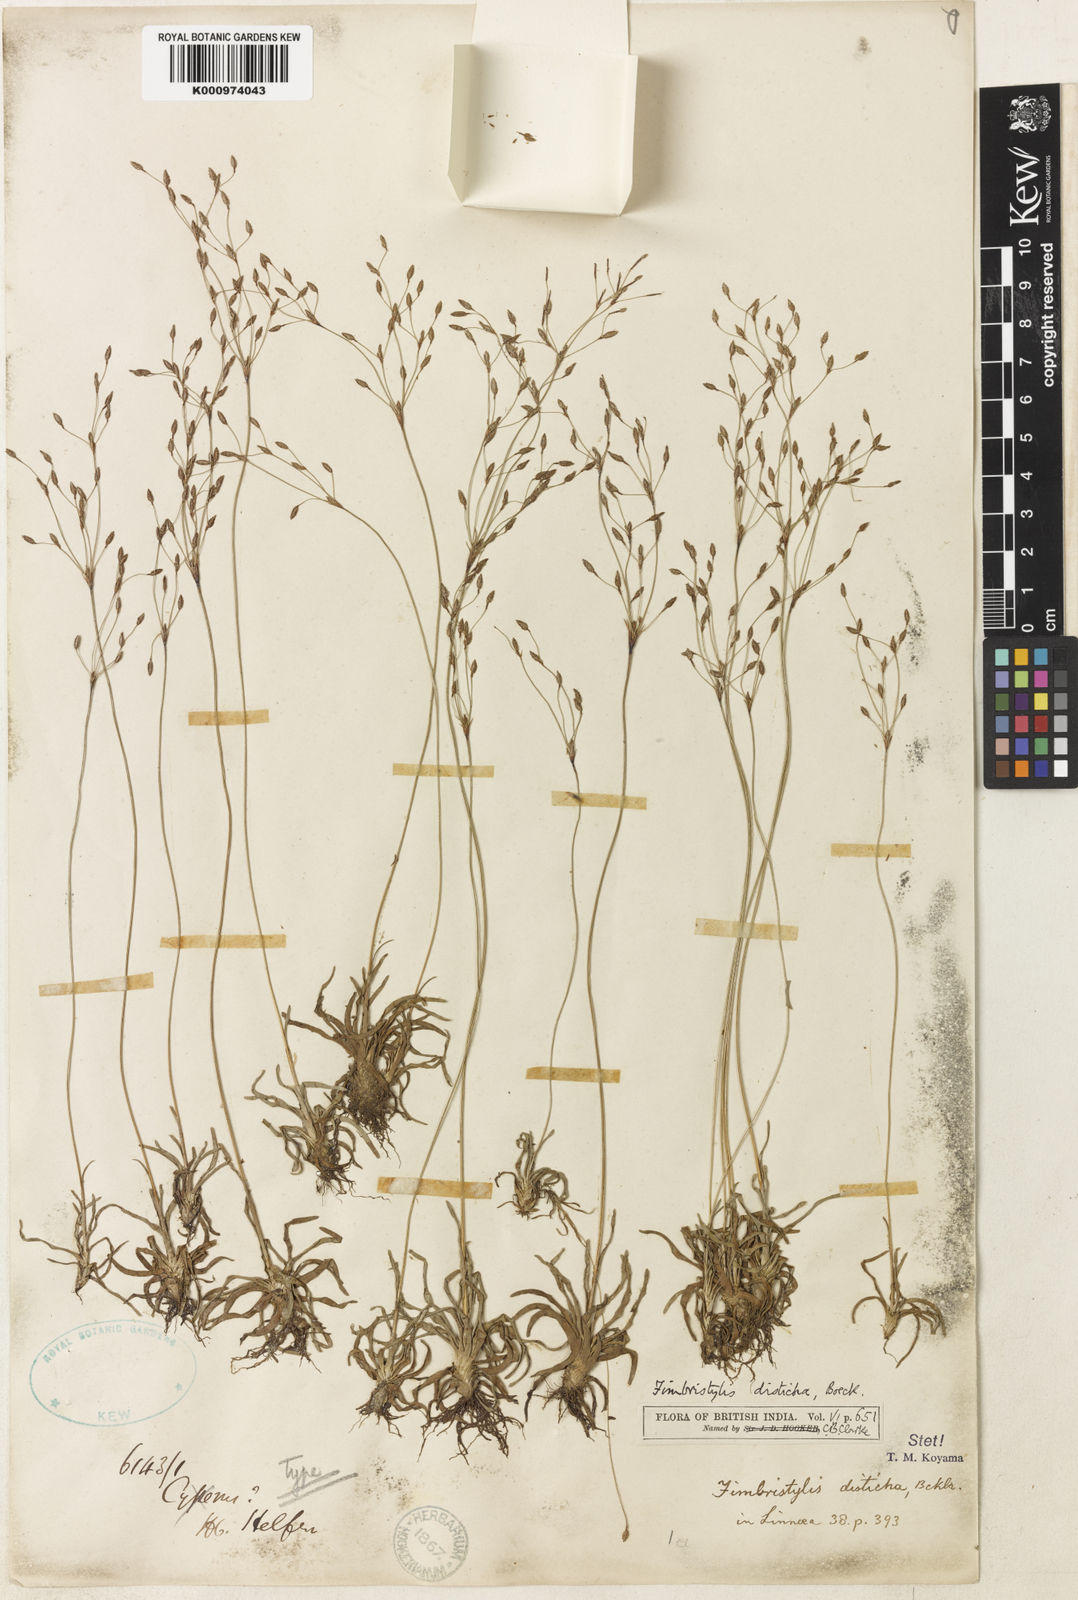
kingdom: Plantae
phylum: Tracheophyta
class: Liliopsida
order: Poales
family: Cyperaceae
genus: Fimbristylis
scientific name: Fimbristylis disticha
